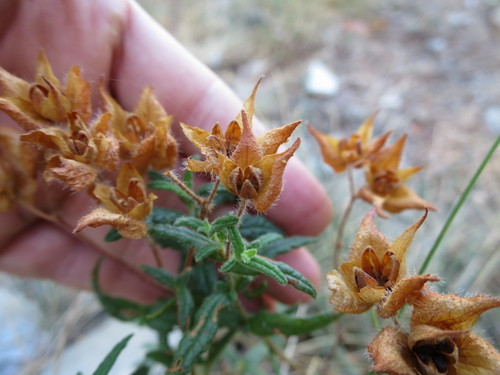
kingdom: Plantae
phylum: Tracheophyta
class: Magnoliopsida
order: Malvales
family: Cistaceae
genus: Cistus
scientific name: Cistus
